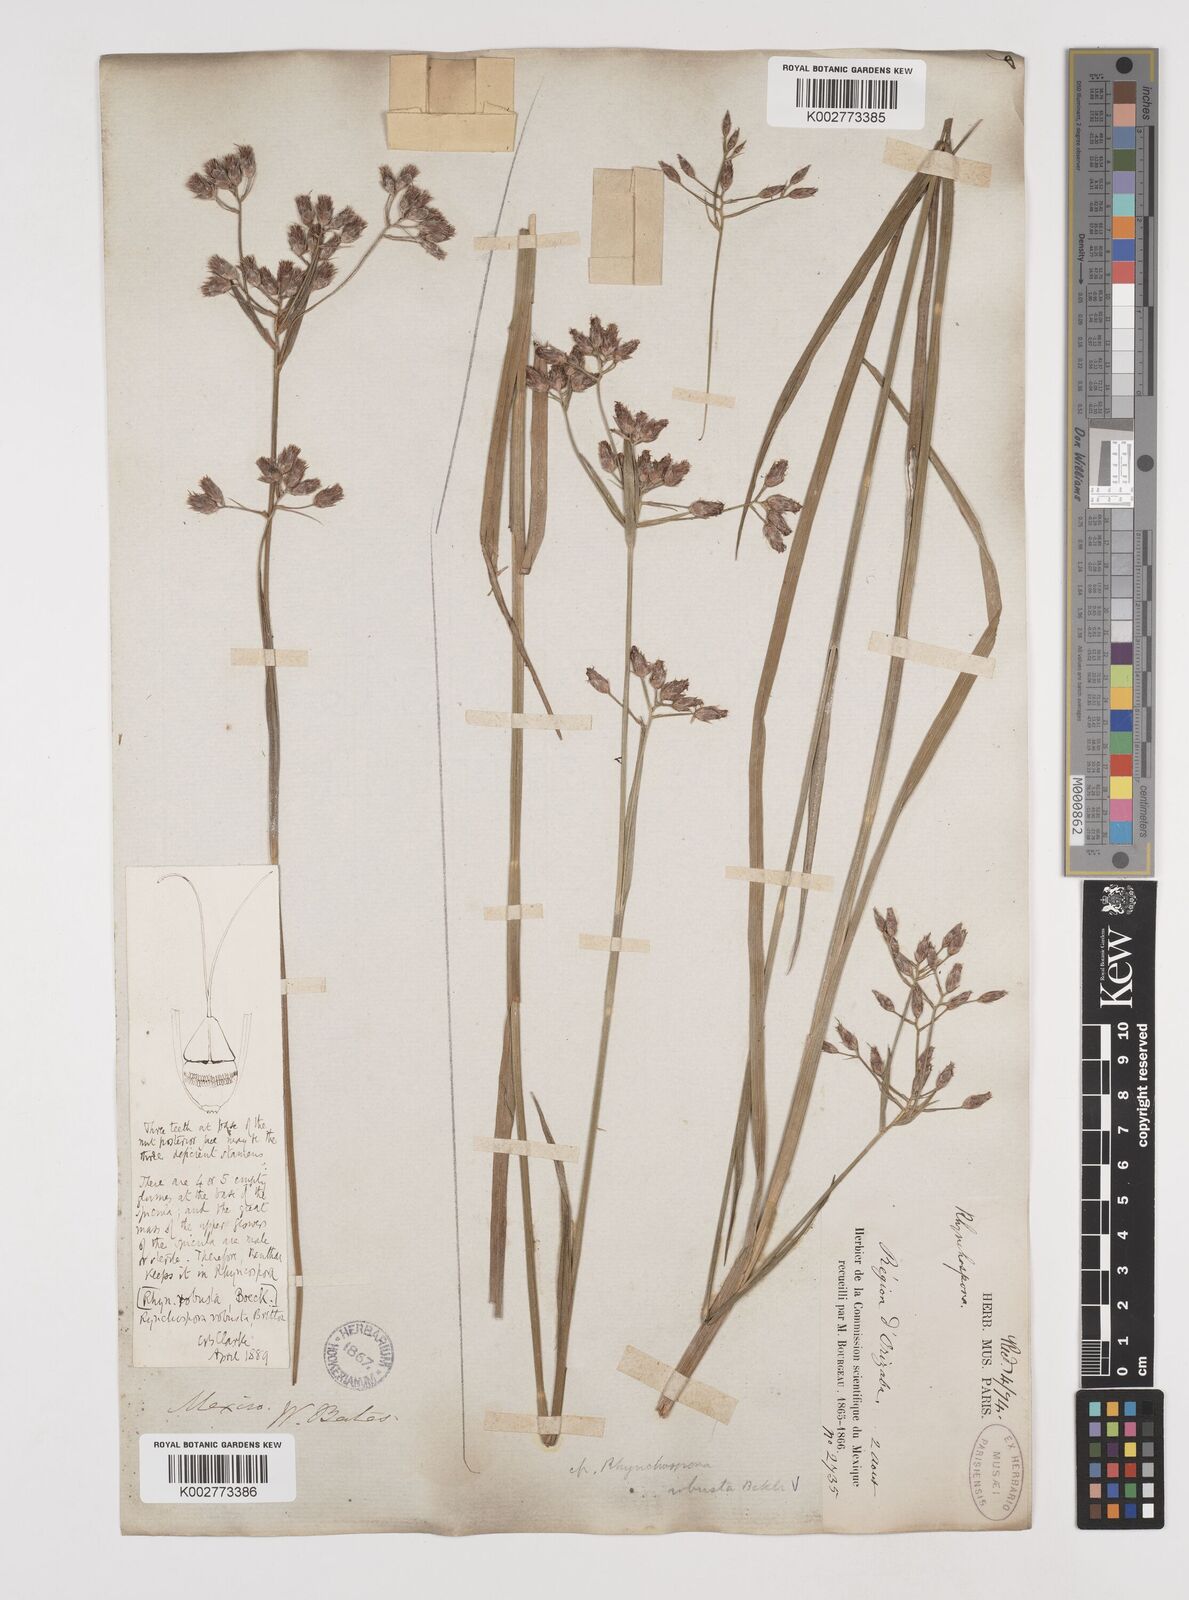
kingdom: Plantae
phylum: Tracheophyta
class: Liliopsida
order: Poales
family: Cyperaceae
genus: Rhynchospora
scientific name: Rhynchospora robusta
